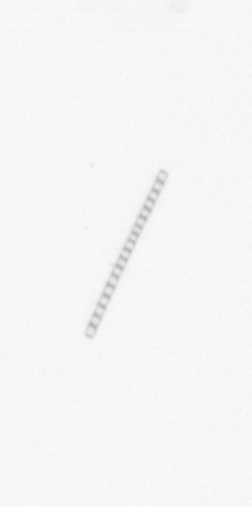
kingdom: Chromista
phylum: Ochrophyta
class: Bacillariophyceae
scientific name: Bacillariophyceae
